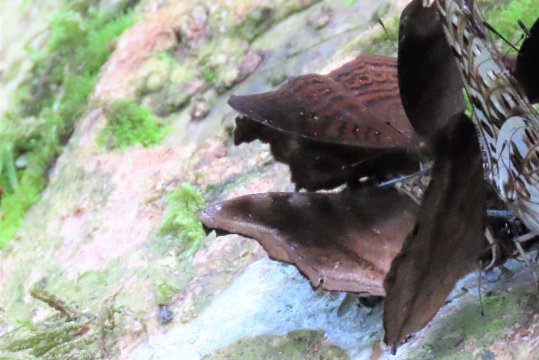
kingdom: Animalia
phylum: Arthropoda
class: Insecta
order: Lepidoptera
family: Nymphalidae
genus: Junonia
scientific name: Junonia stygia
